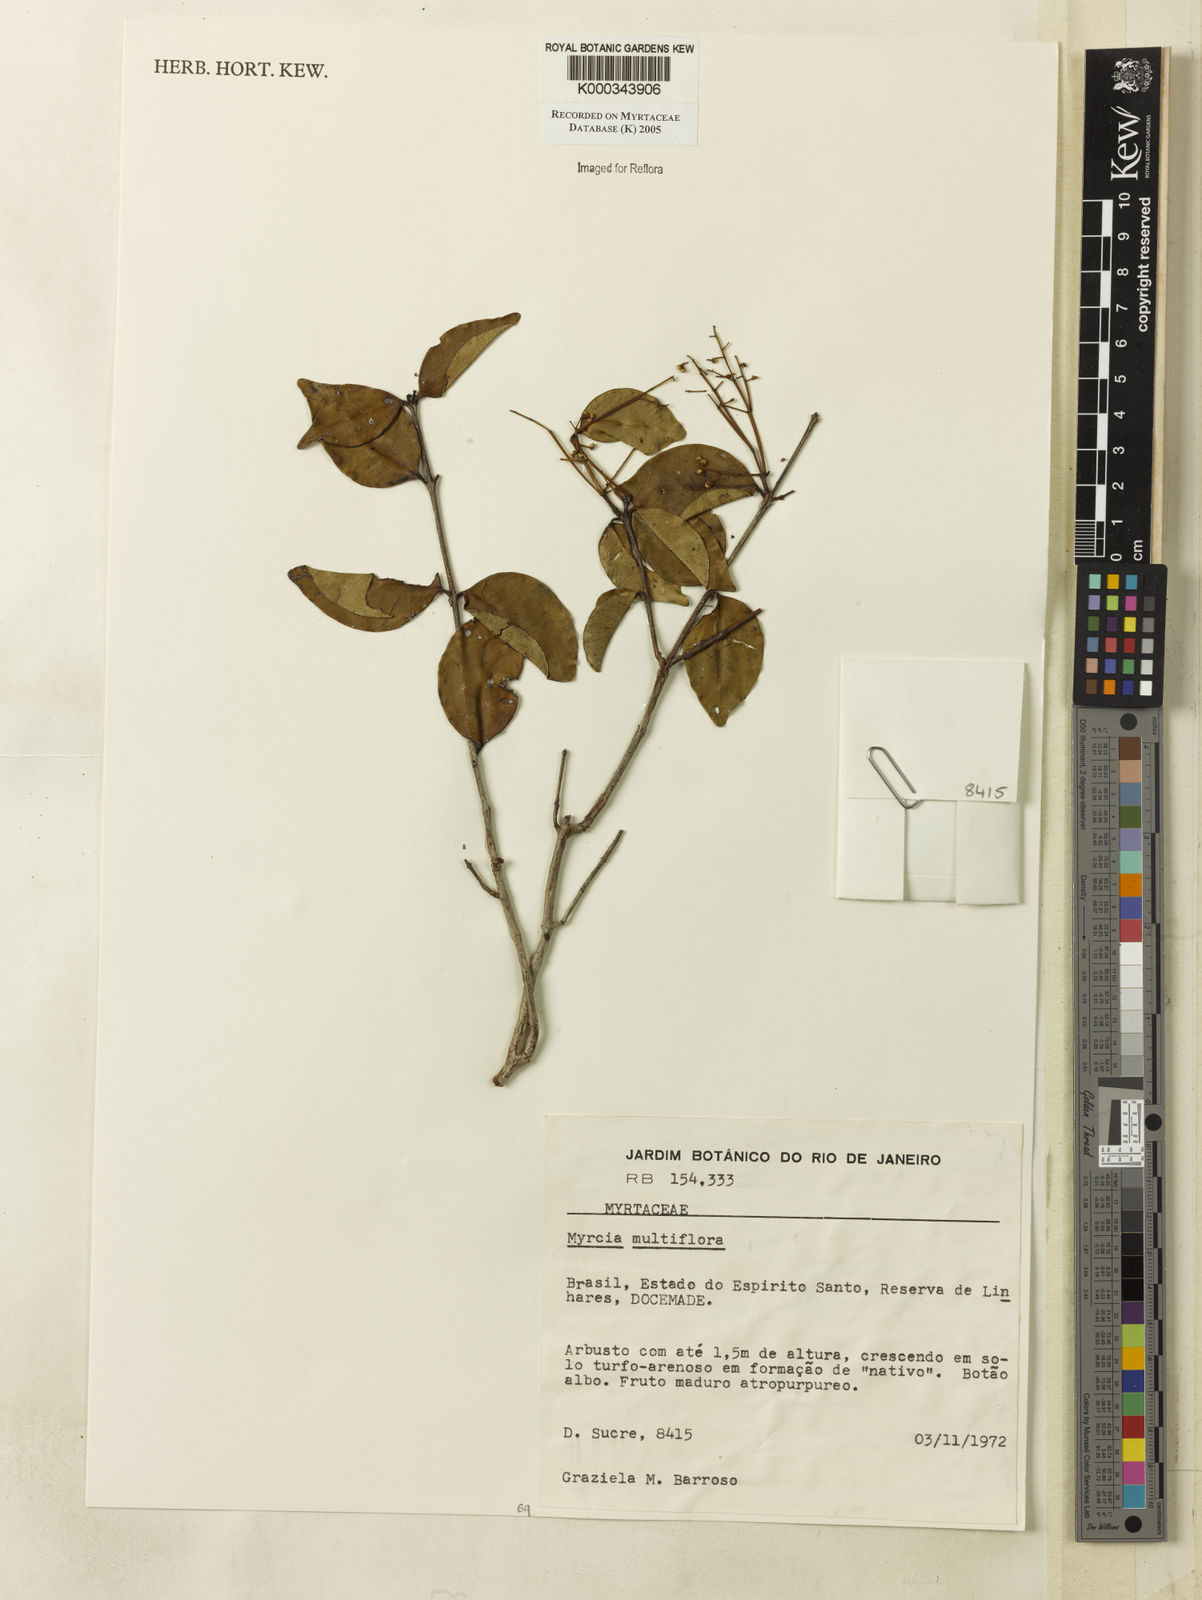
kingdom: Plantae
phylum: Tracheophyta
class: Magnoliopsida
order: Myrtales
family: Myrtaceae
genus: Myrcia
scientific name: Myrcia multiflora
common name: Pedra hume
